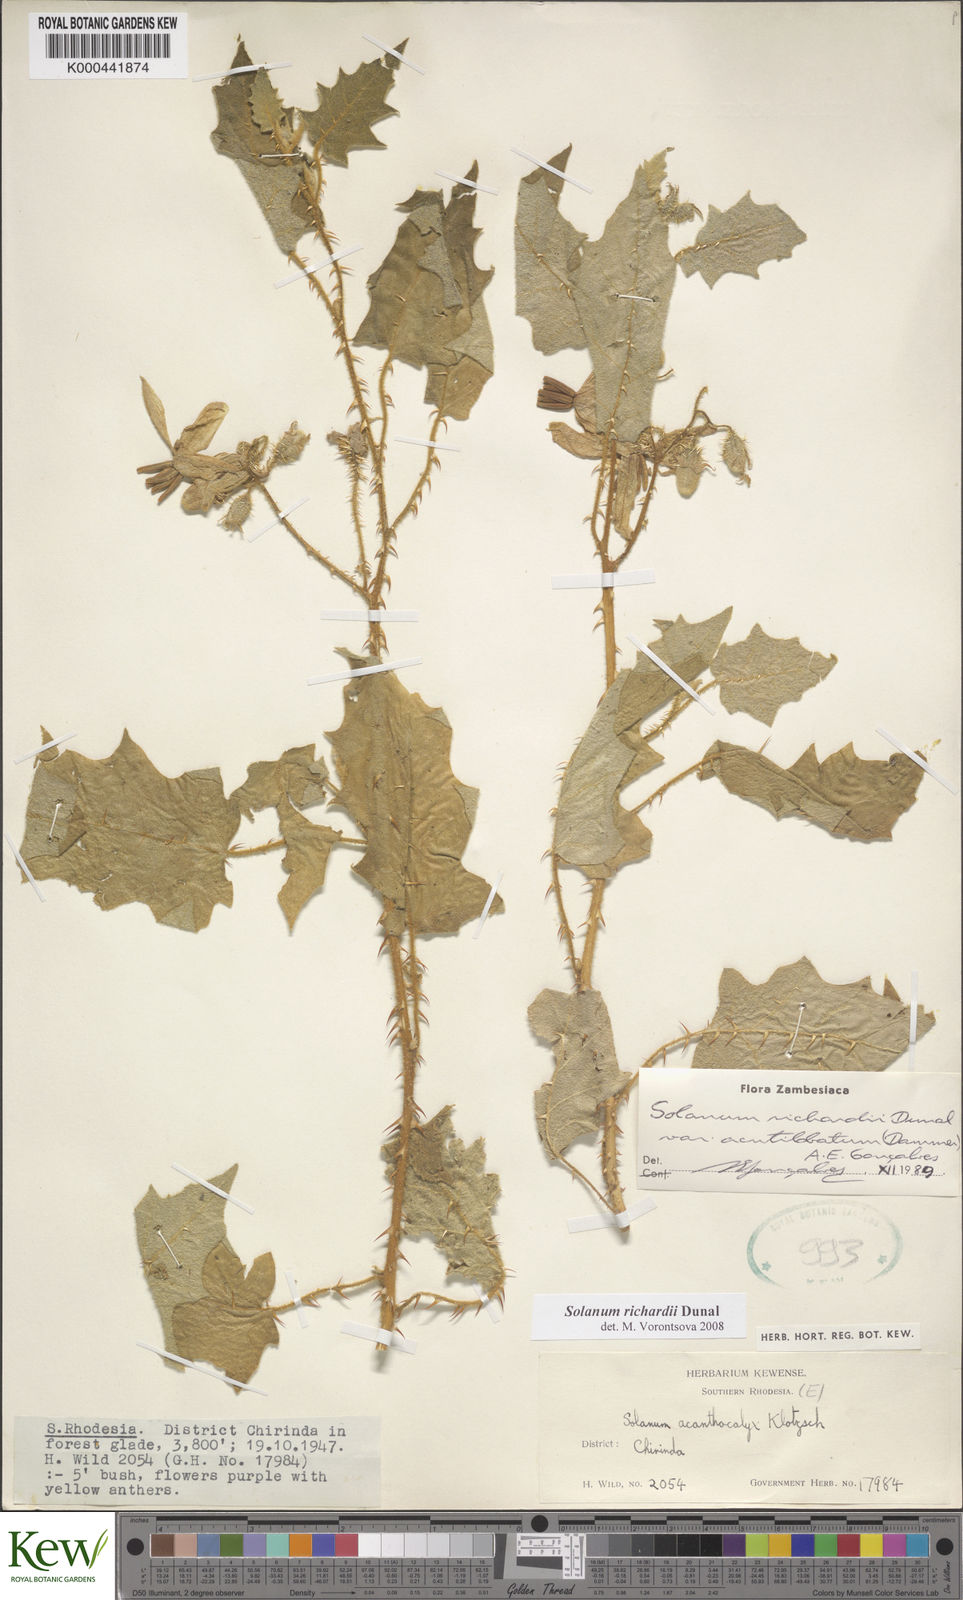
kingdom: Plantae
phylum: Tracheophyta
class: Magnoliopsida
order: Solanales
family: Solanaceae
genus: Solanum
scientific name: Solanum richardii
